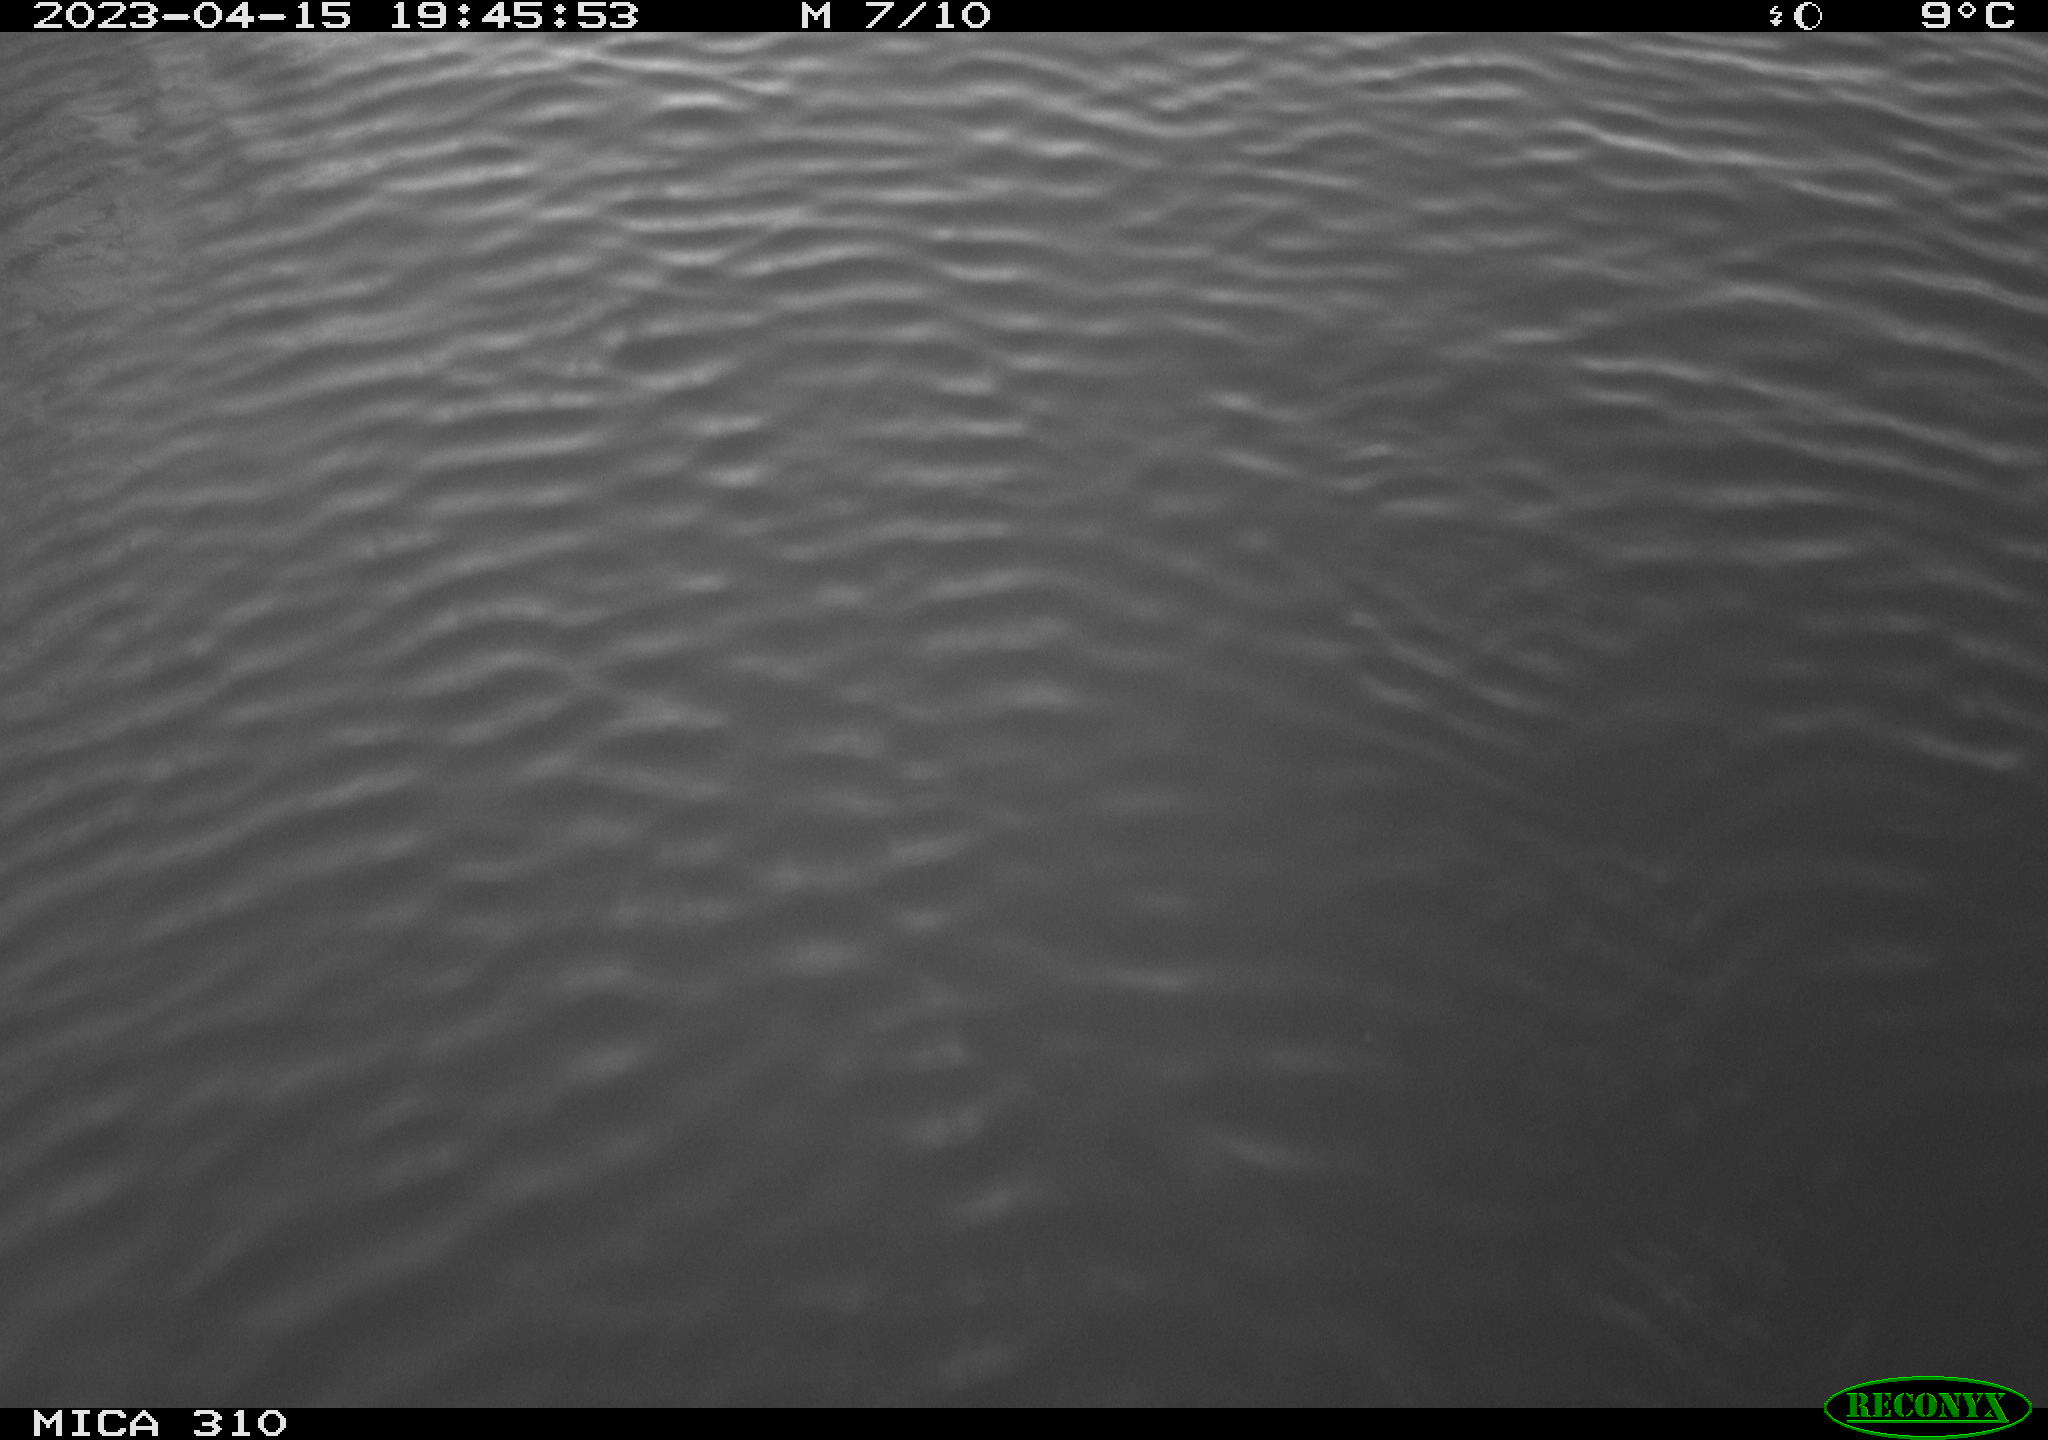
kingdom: Animalia
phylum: Chordata
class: Aves
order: Anseriformes
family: Anatidae
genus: Anas
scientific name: Anas
